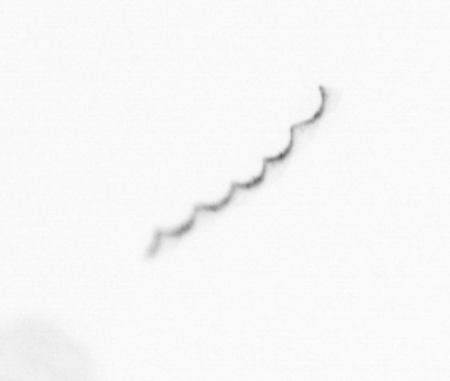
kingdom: Chromista
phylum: Ochrophyta
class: Bacillariophyceae
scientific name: Bacillariophyceae
